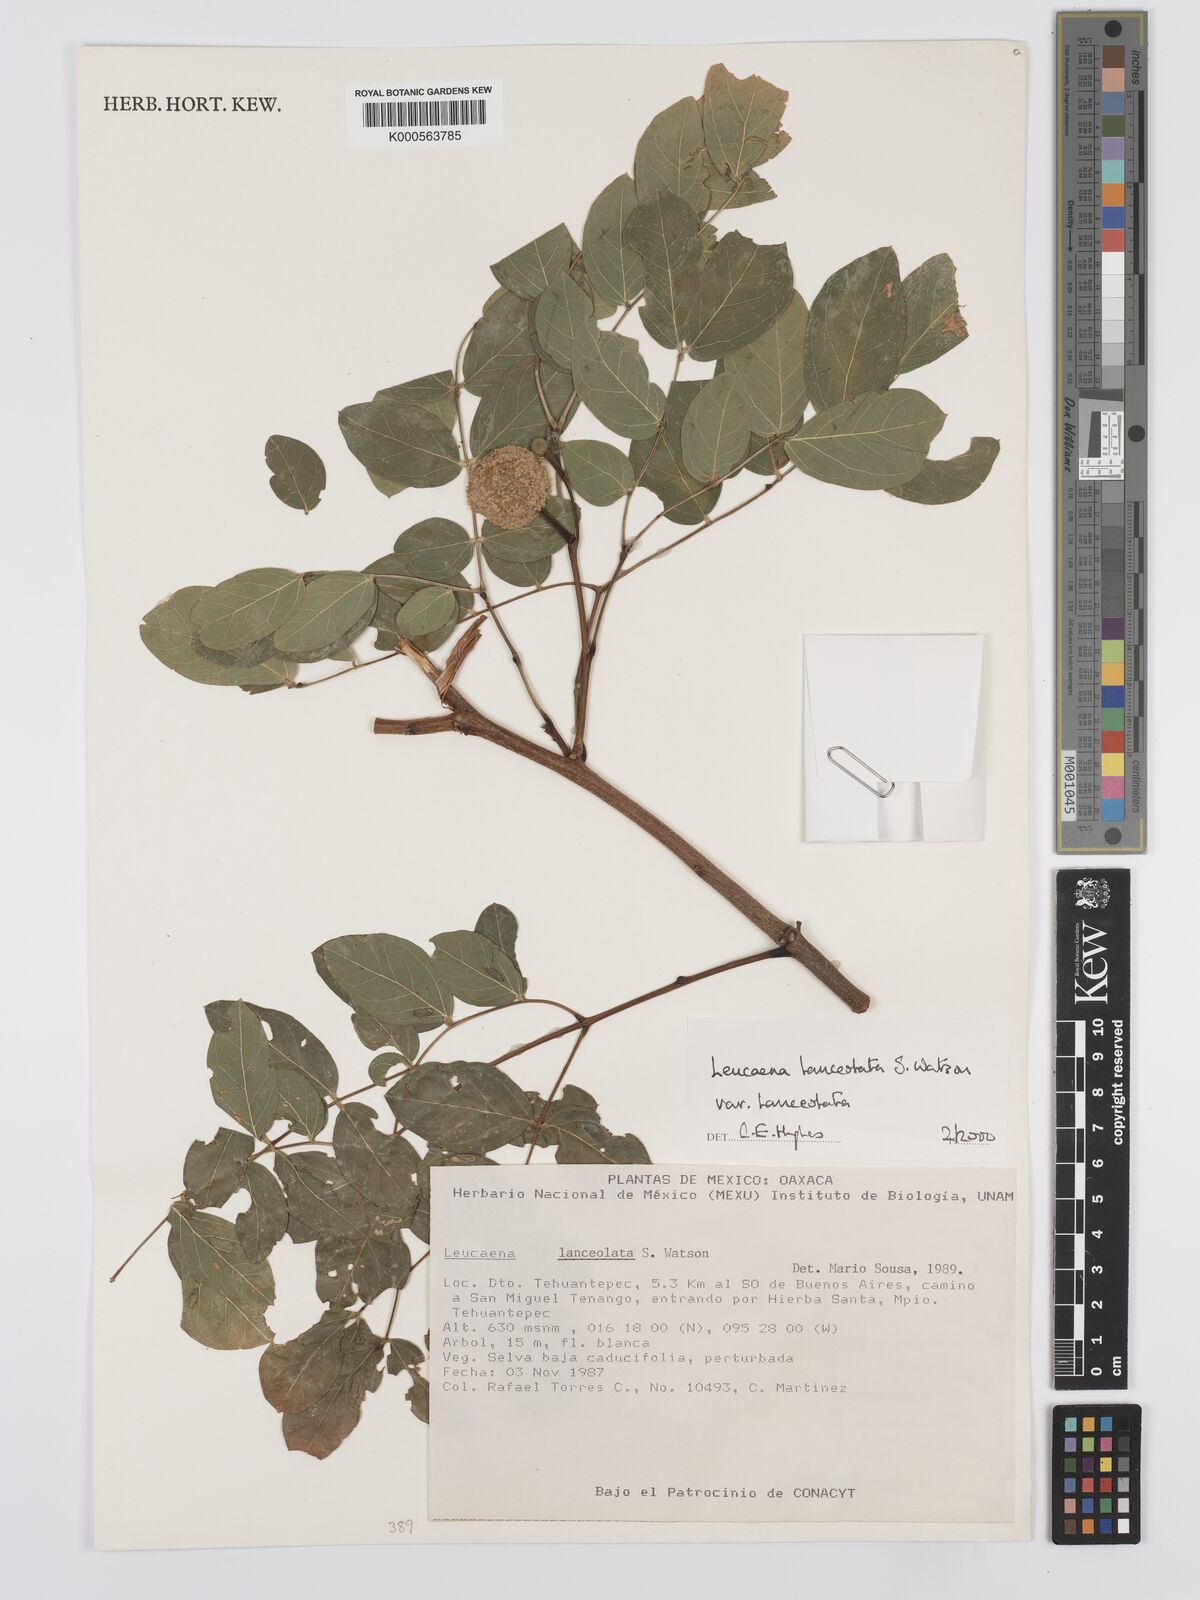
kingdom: Plantae
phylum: Tracheophyta
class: Magnoliopsida
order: Fabales
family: Fabaceae
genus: Leucaena
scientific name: Leucaena lanceolata
